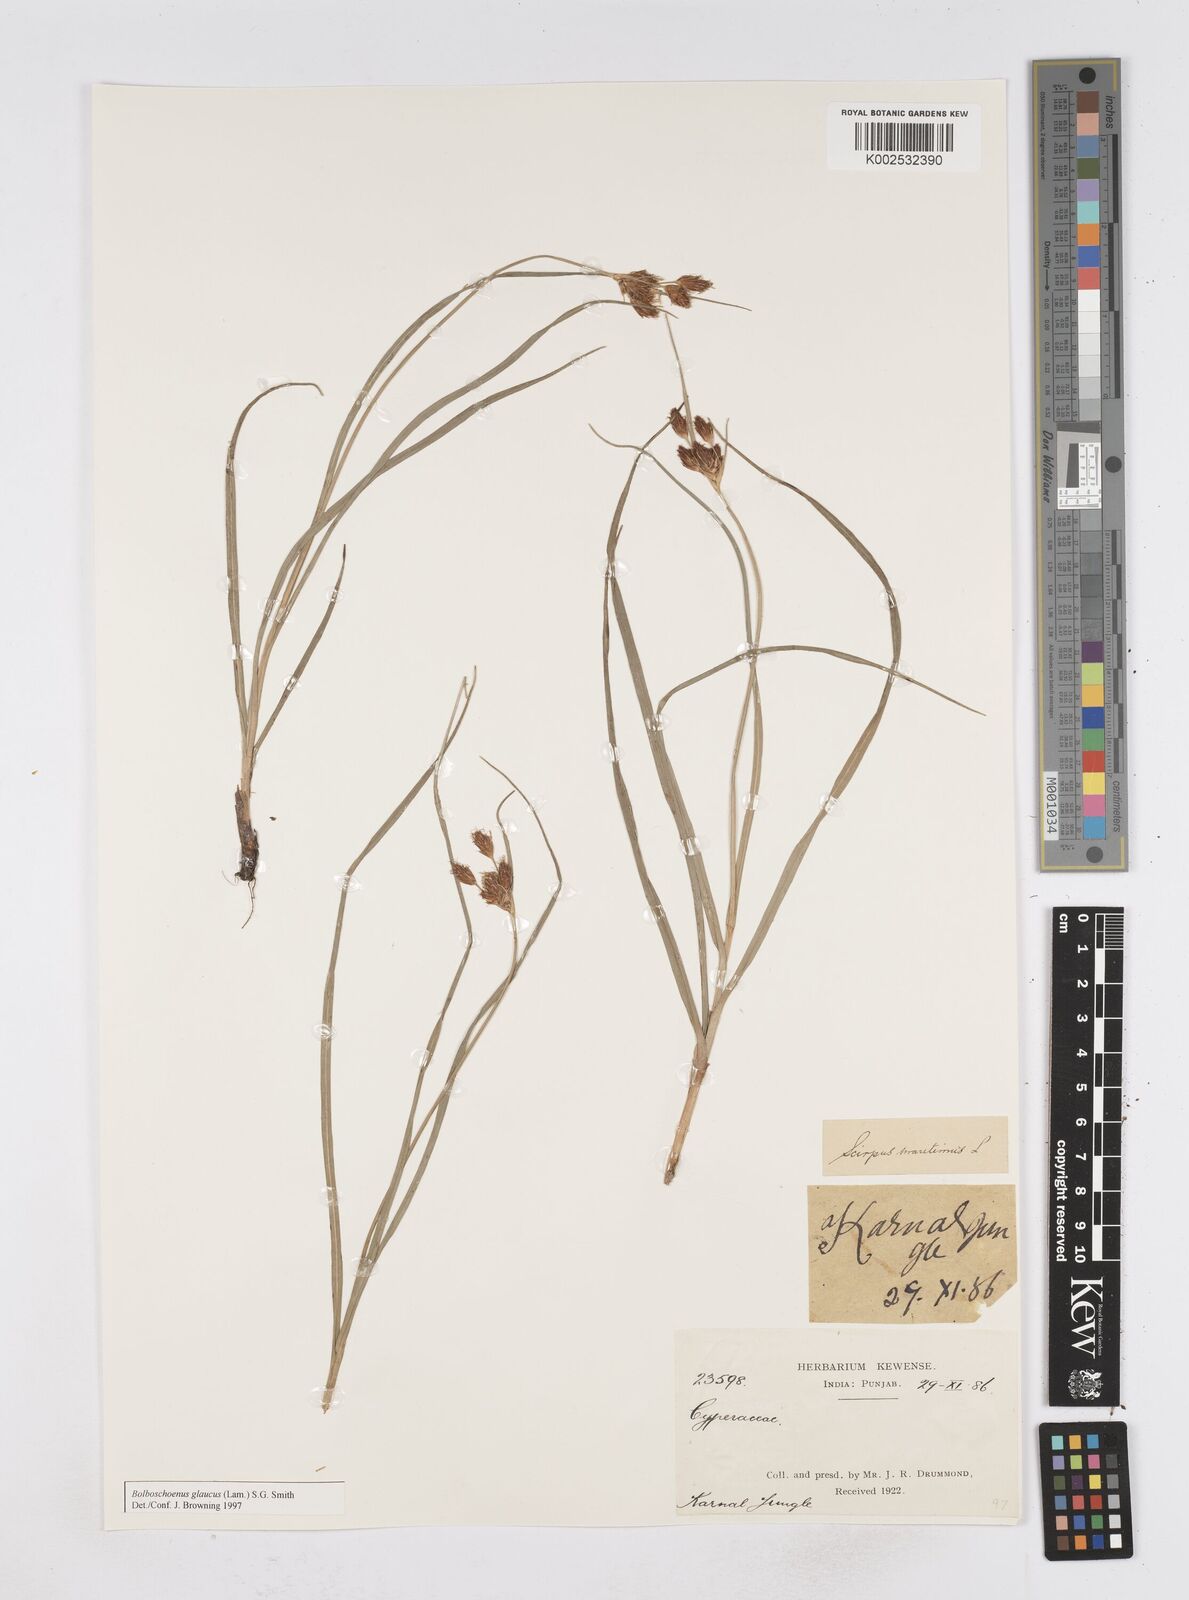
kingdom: Plantae
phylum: Tracheophyta
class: Liliopsida
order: Poales
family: Cyperaceae
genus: Bolboschoenus
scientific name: Bolboschoenus maritimus
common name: Sea club-rush
